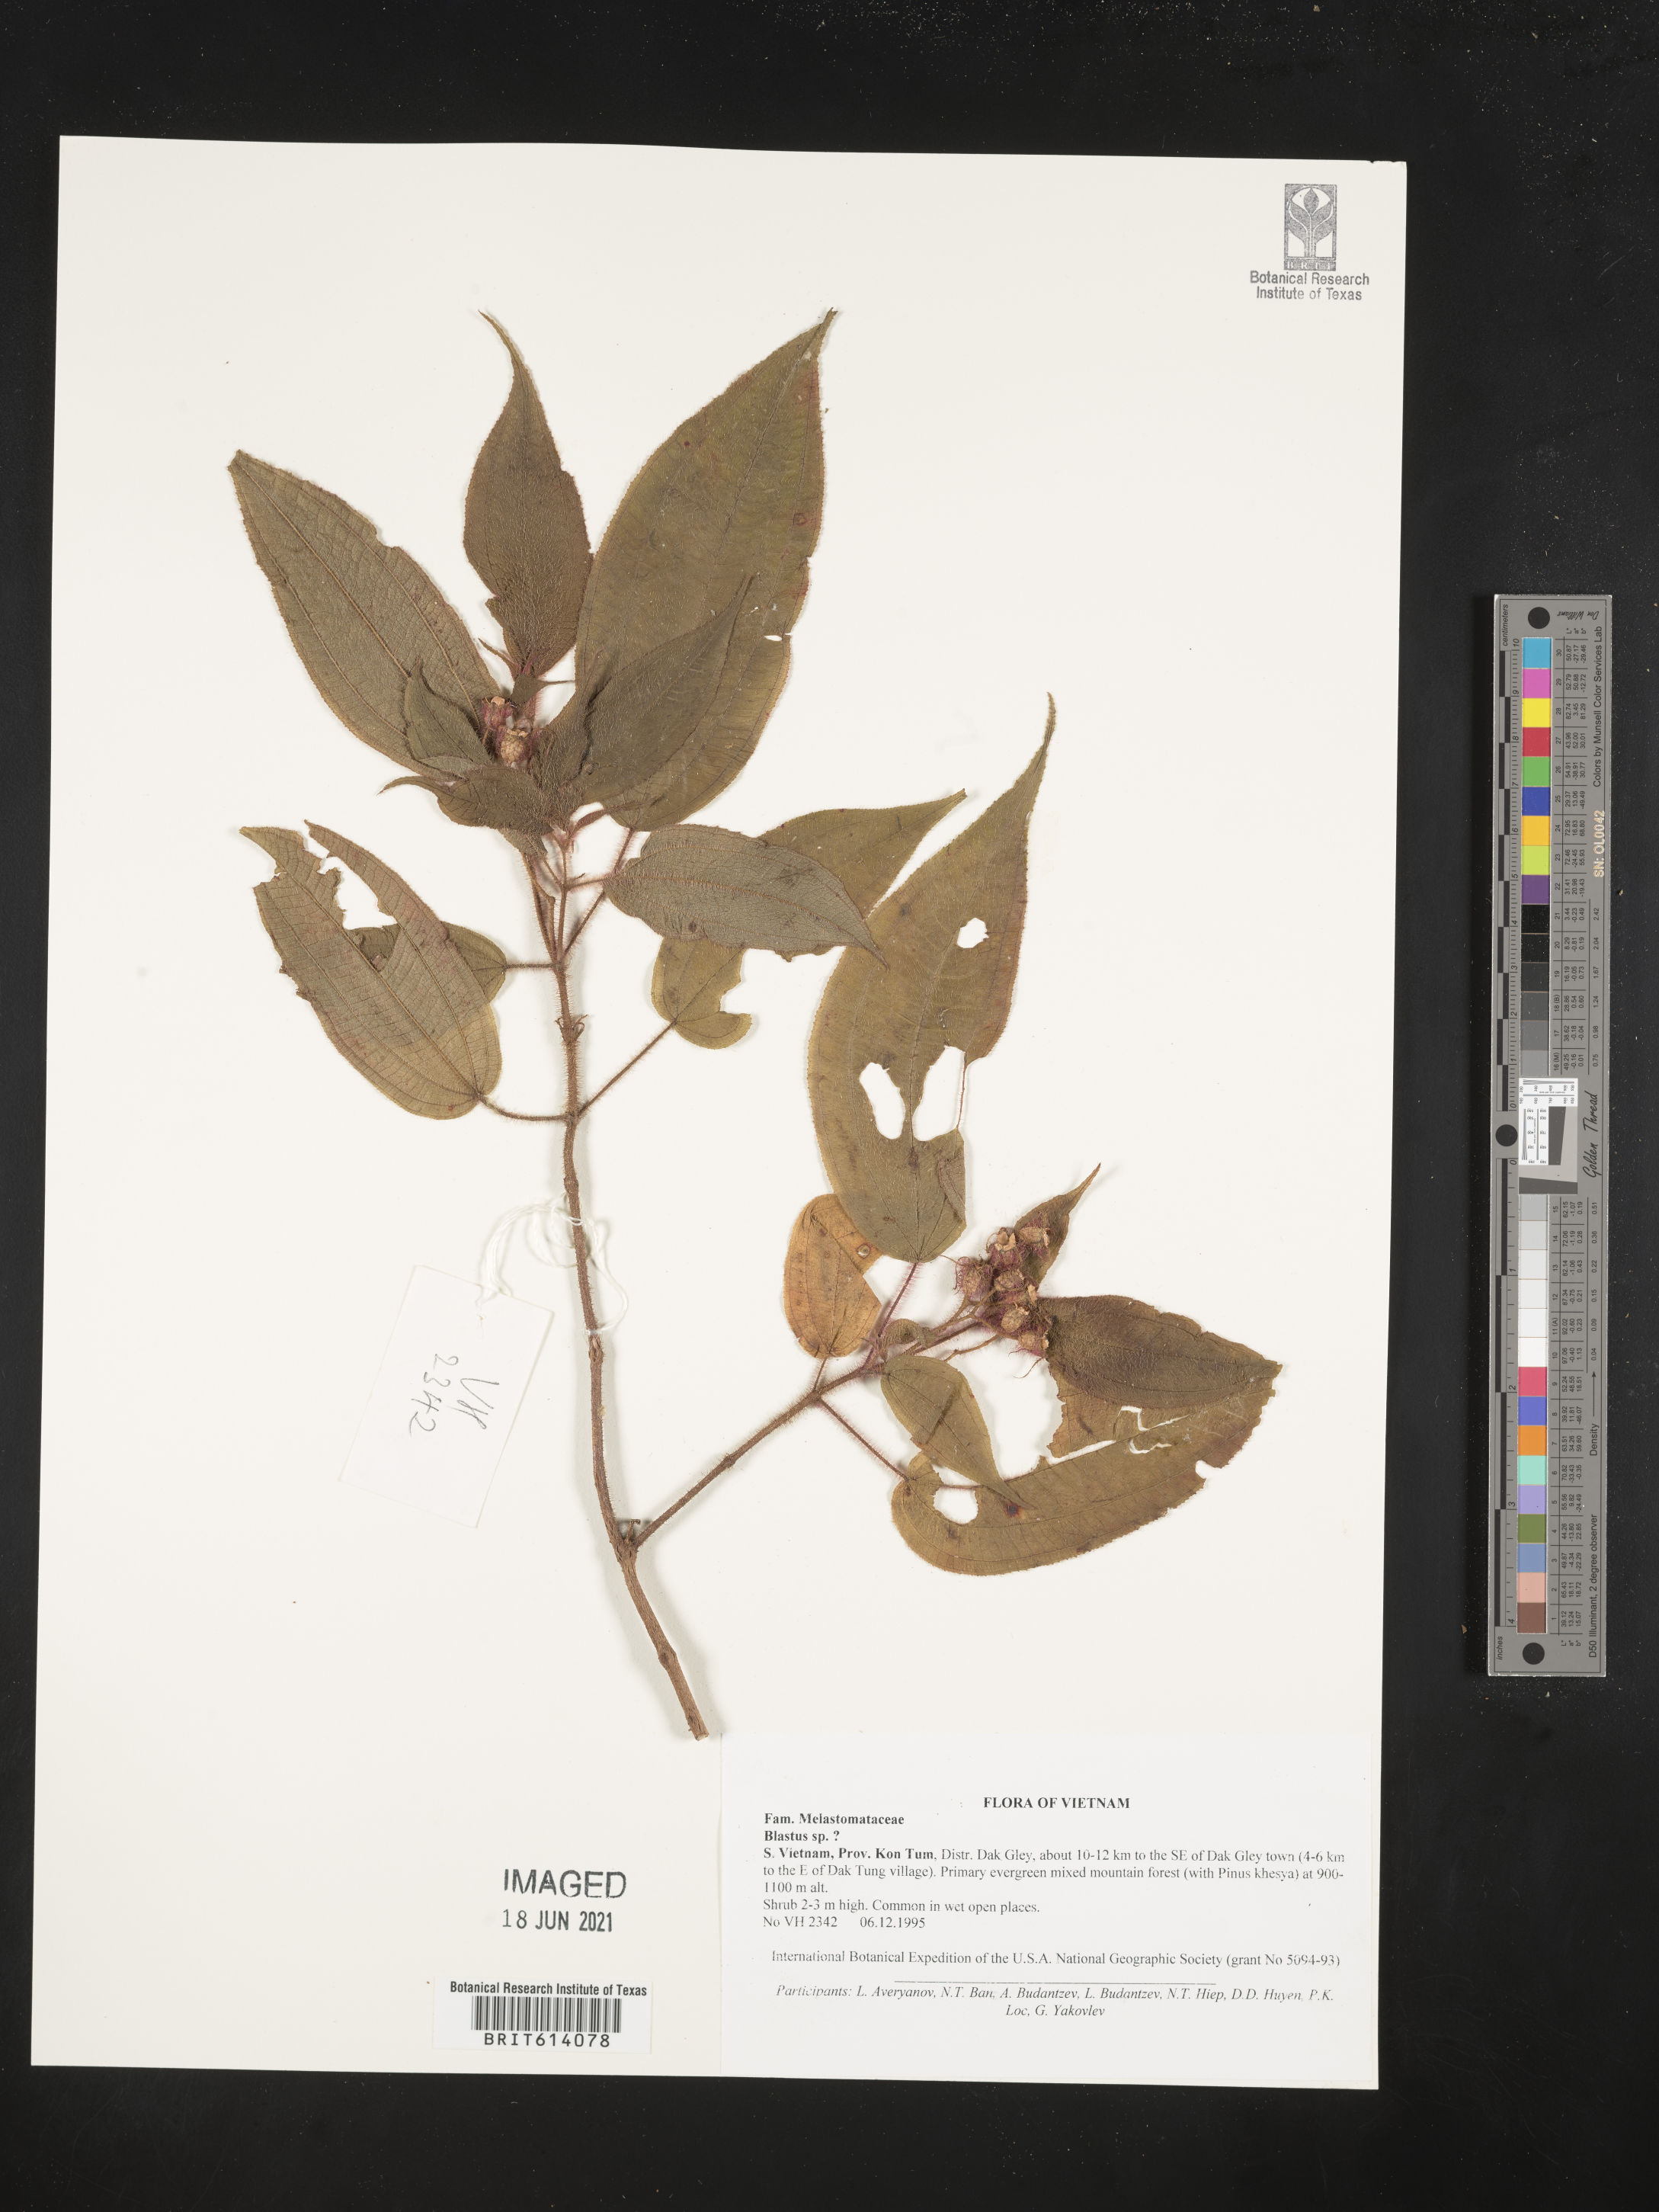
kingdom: Plantae
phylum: Tracheophyta
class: Magnoliopsida
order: Myrtales
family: Melastomataceae
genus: Blastus
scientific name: Blastus
